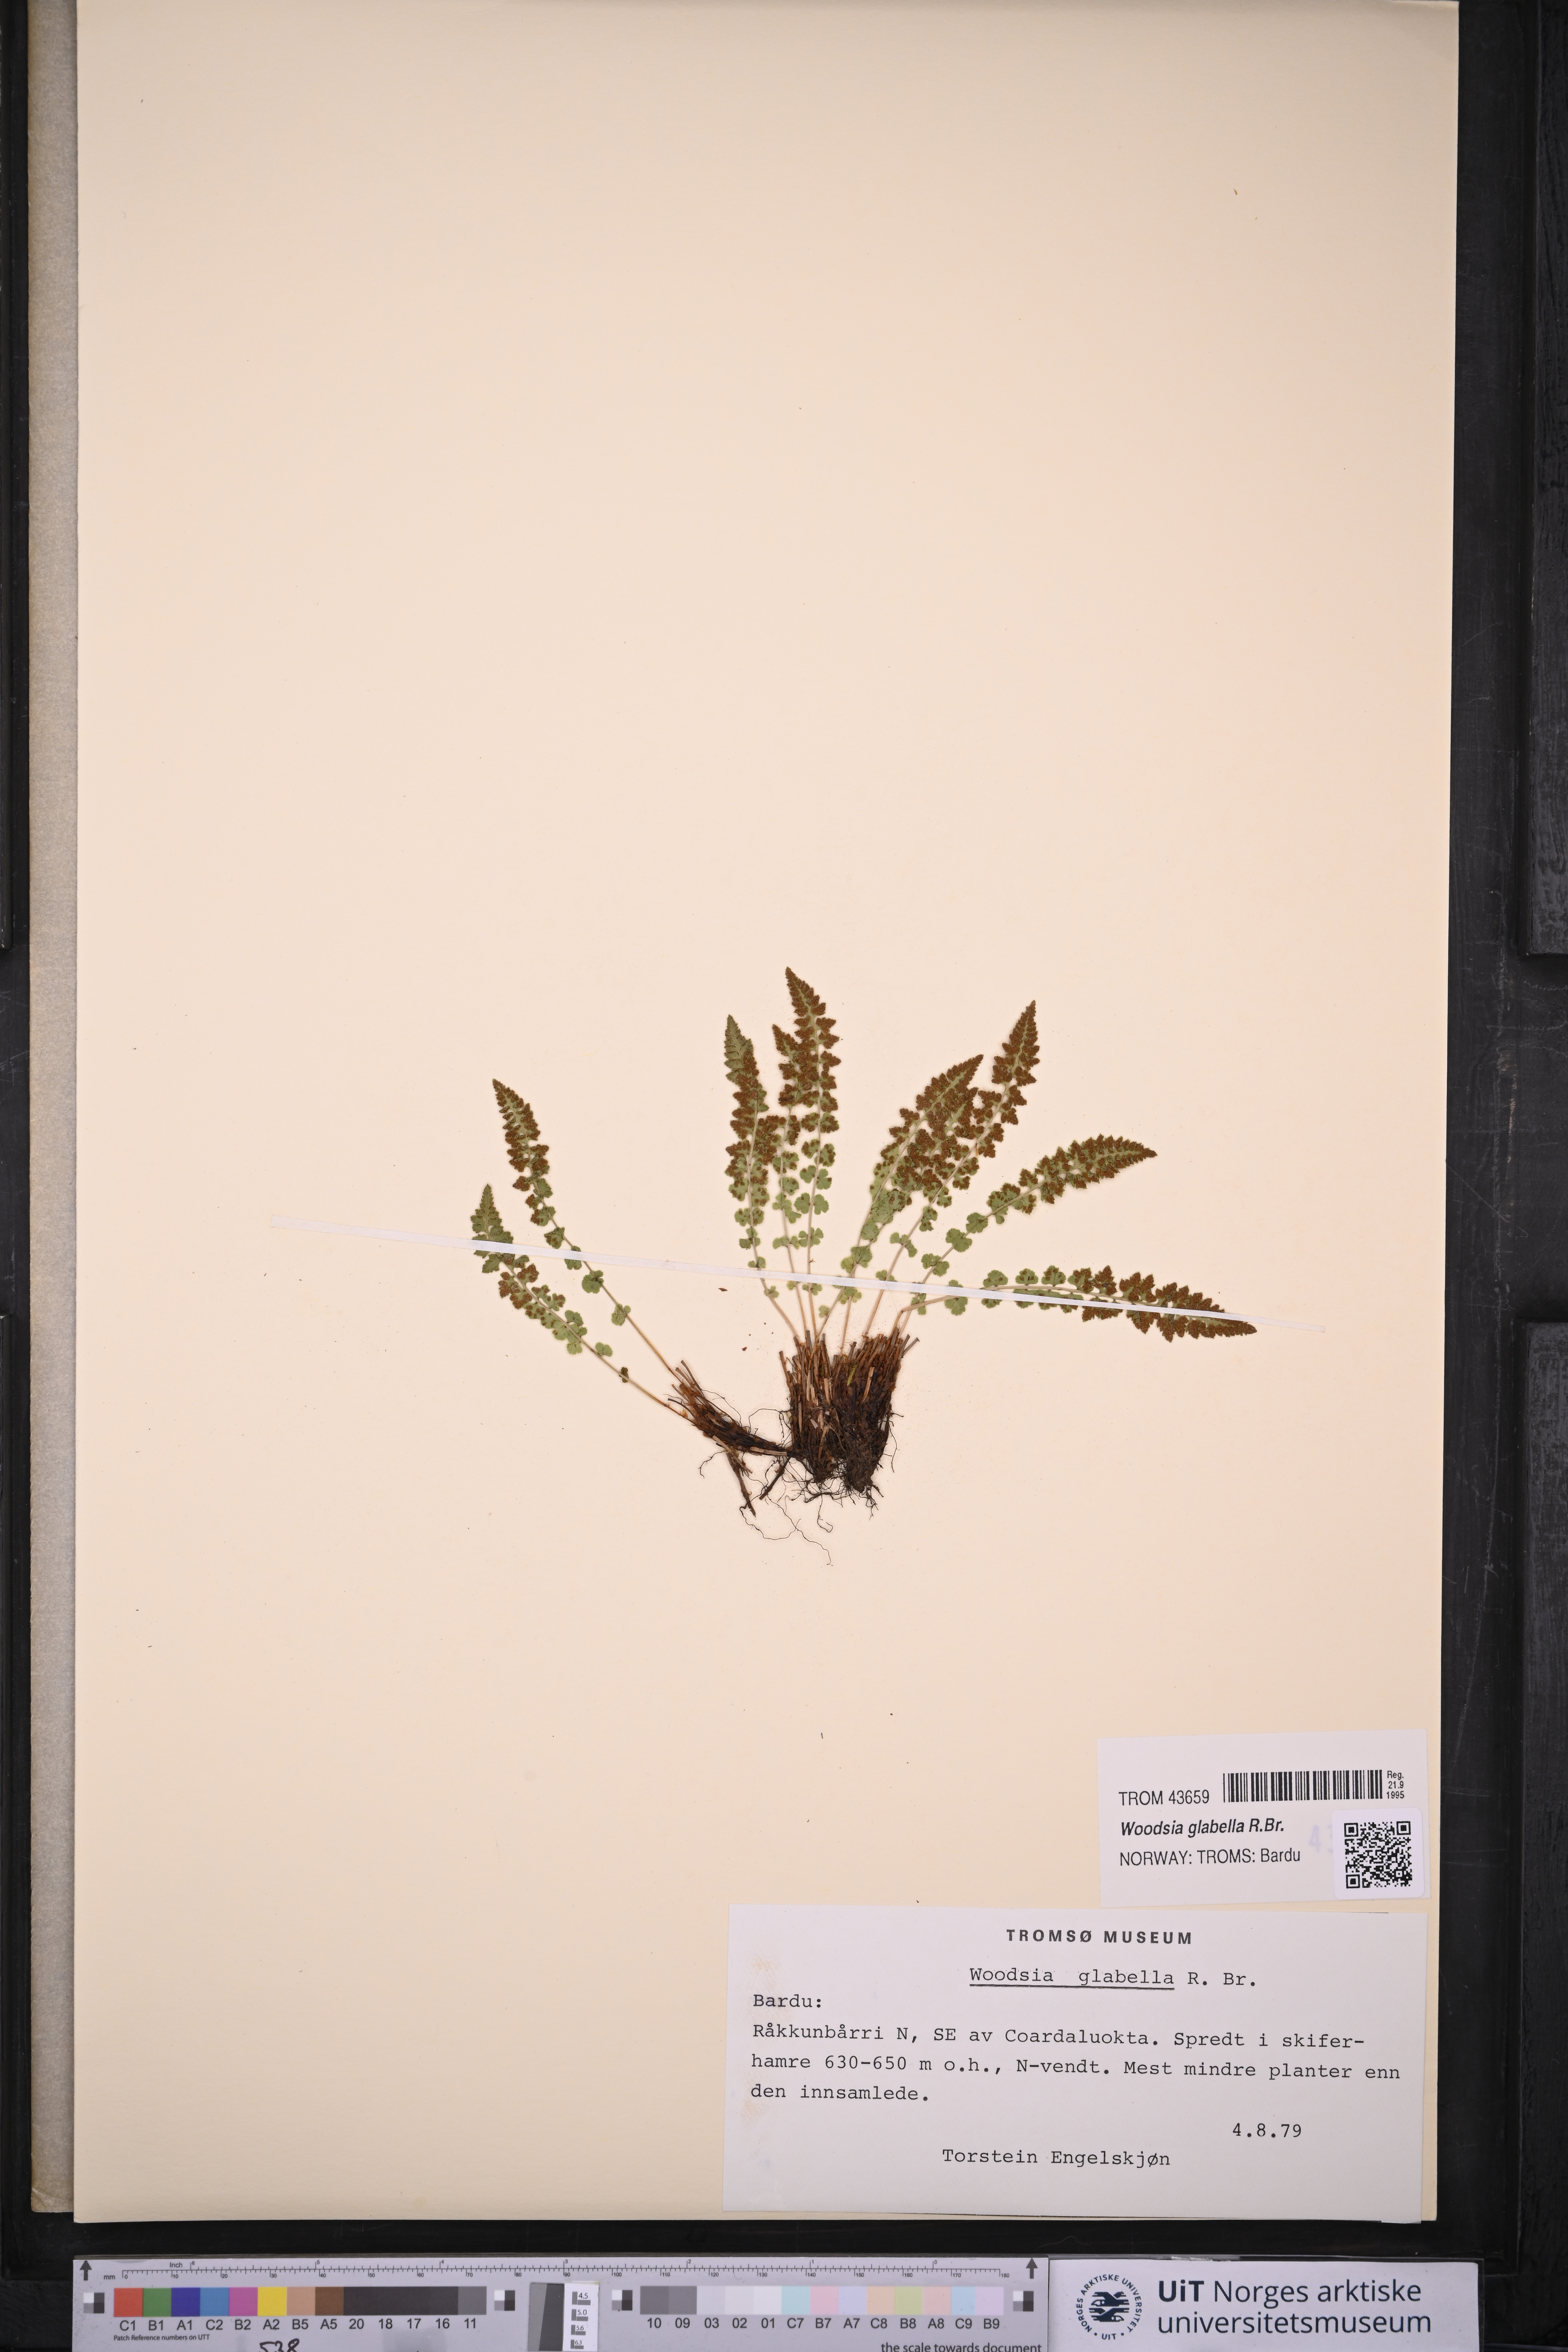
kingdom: Plantae
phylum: Tracheophyta
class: Polypodiopsida
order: Polypodiales
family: Woodsiaceae
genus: Woodsia
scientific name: Woodsia glabella
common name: Smooth woodsia
